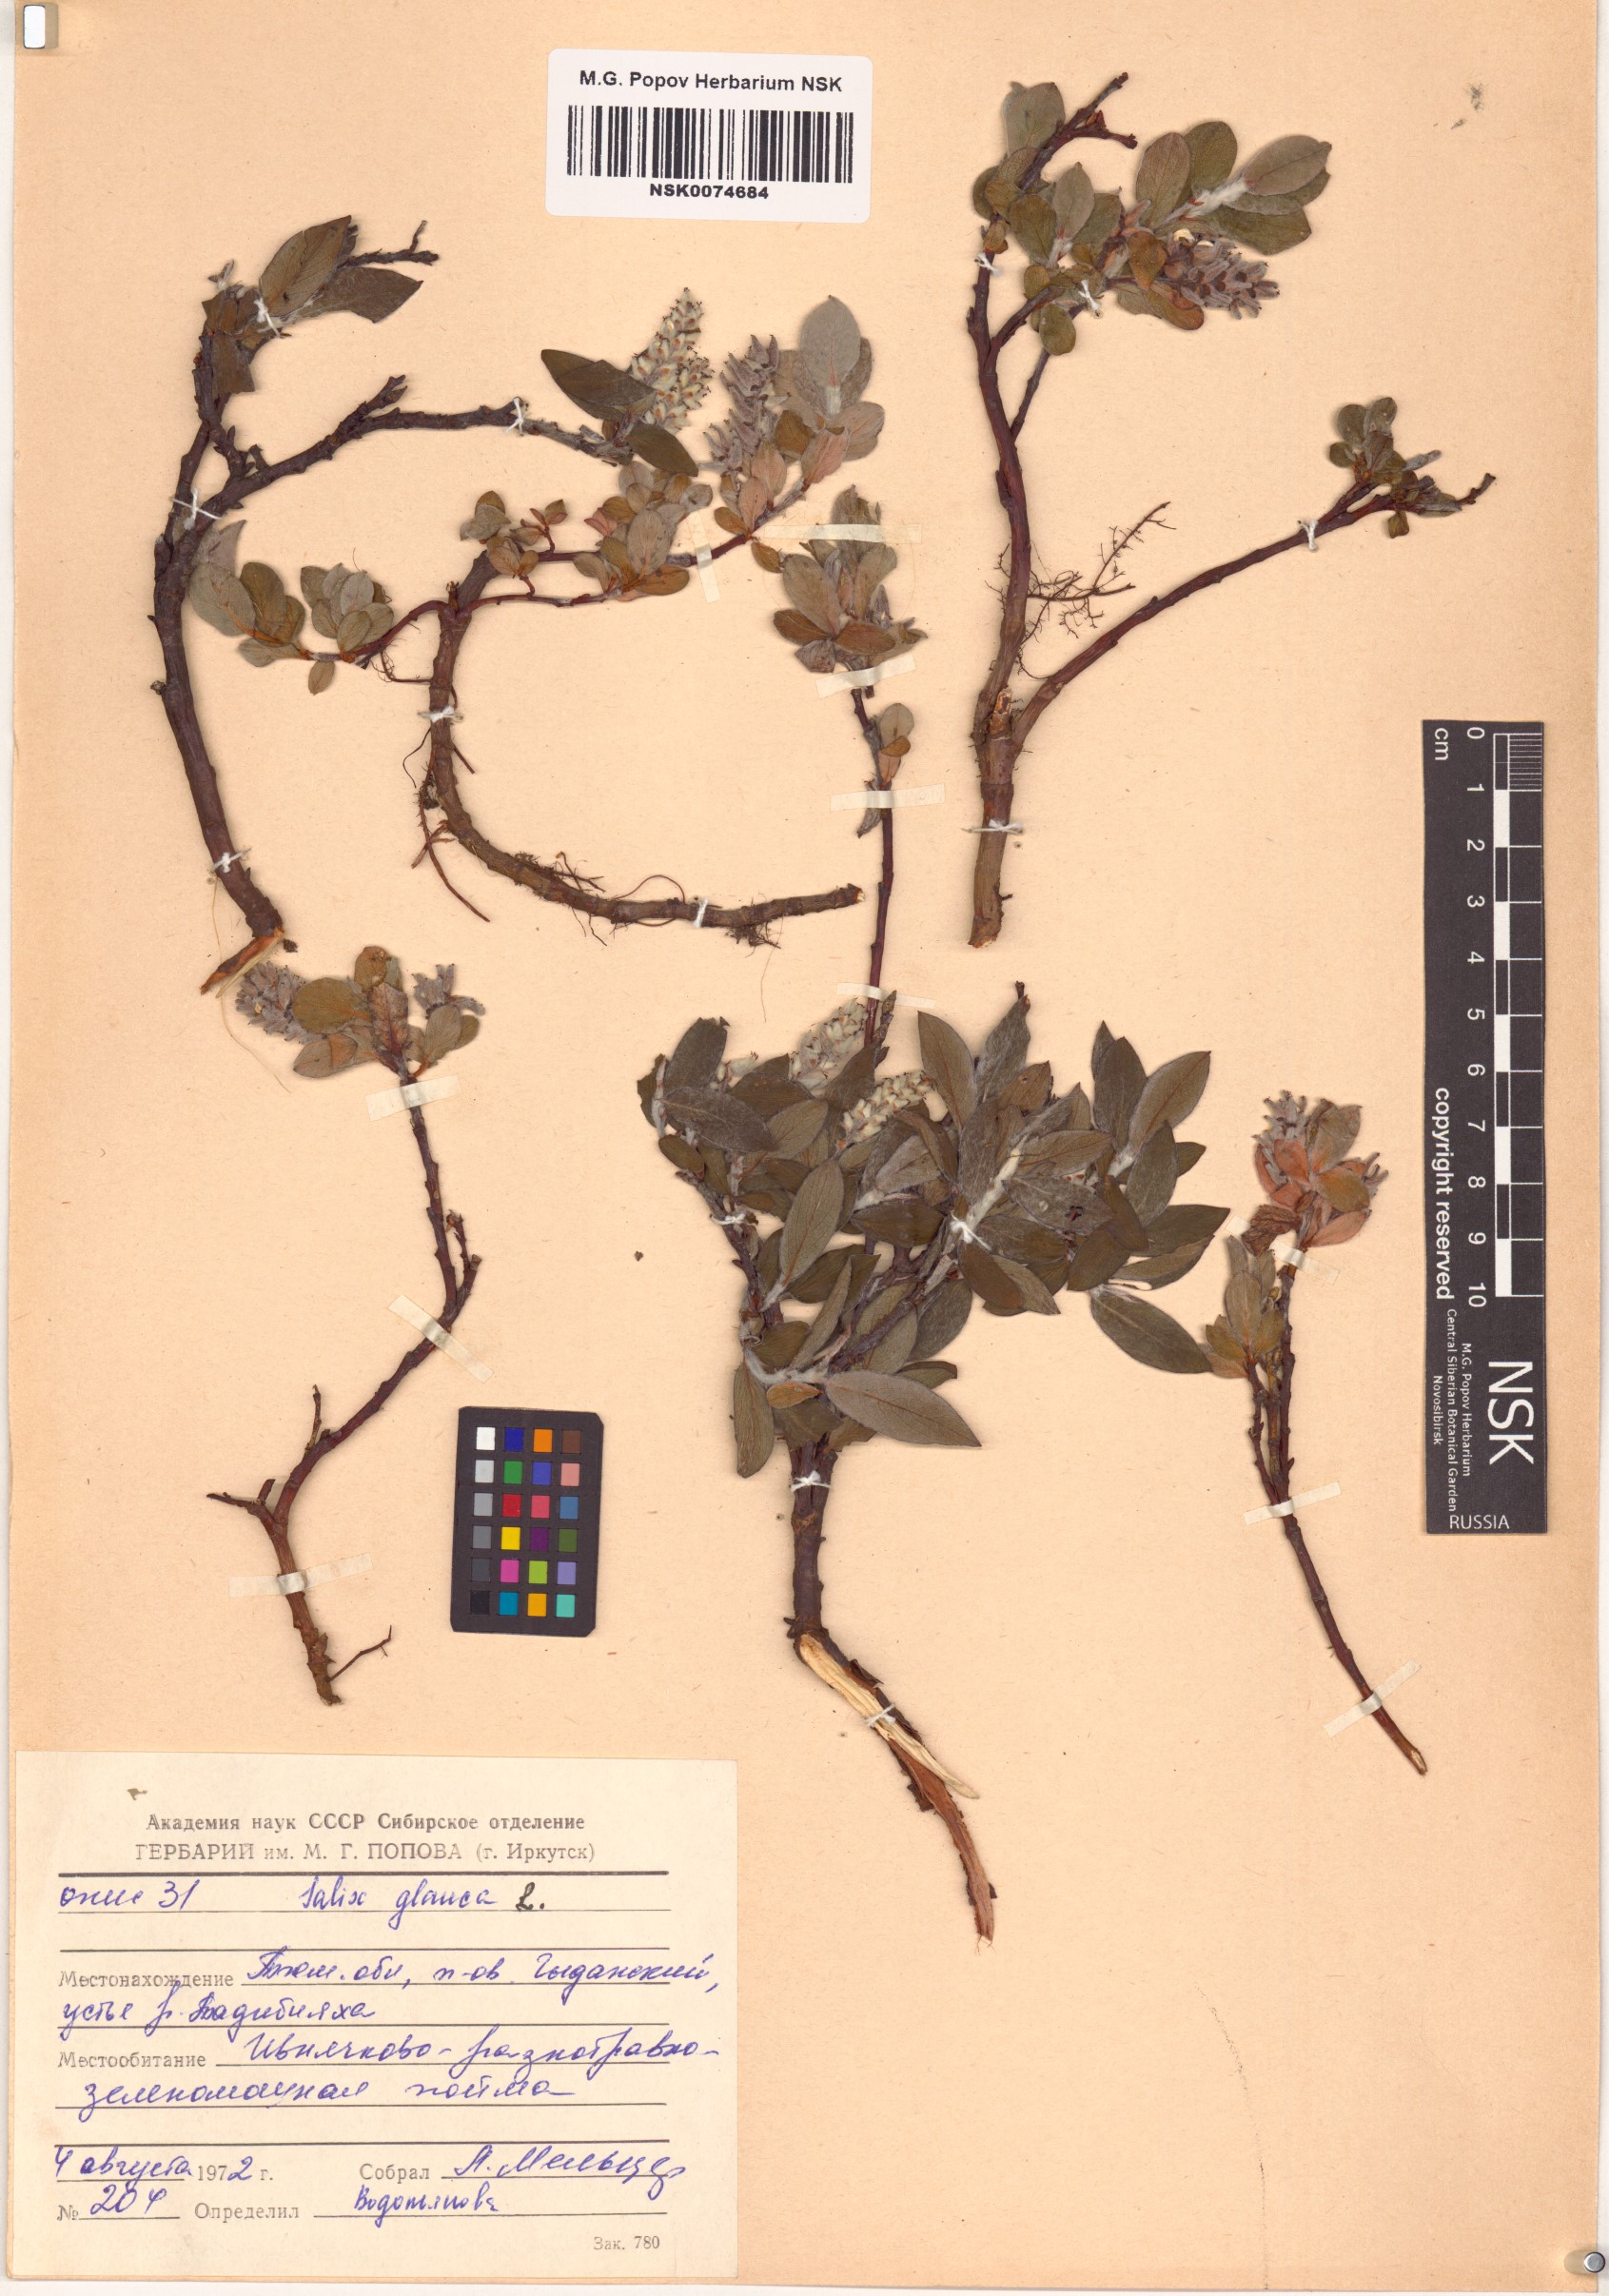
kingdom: Plantae
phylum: Tracheophyta
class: Magnoliopsida
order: Malpighiales
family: Salicaceae
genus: Salix
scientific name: Salix glauca
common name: Glaucous willow
